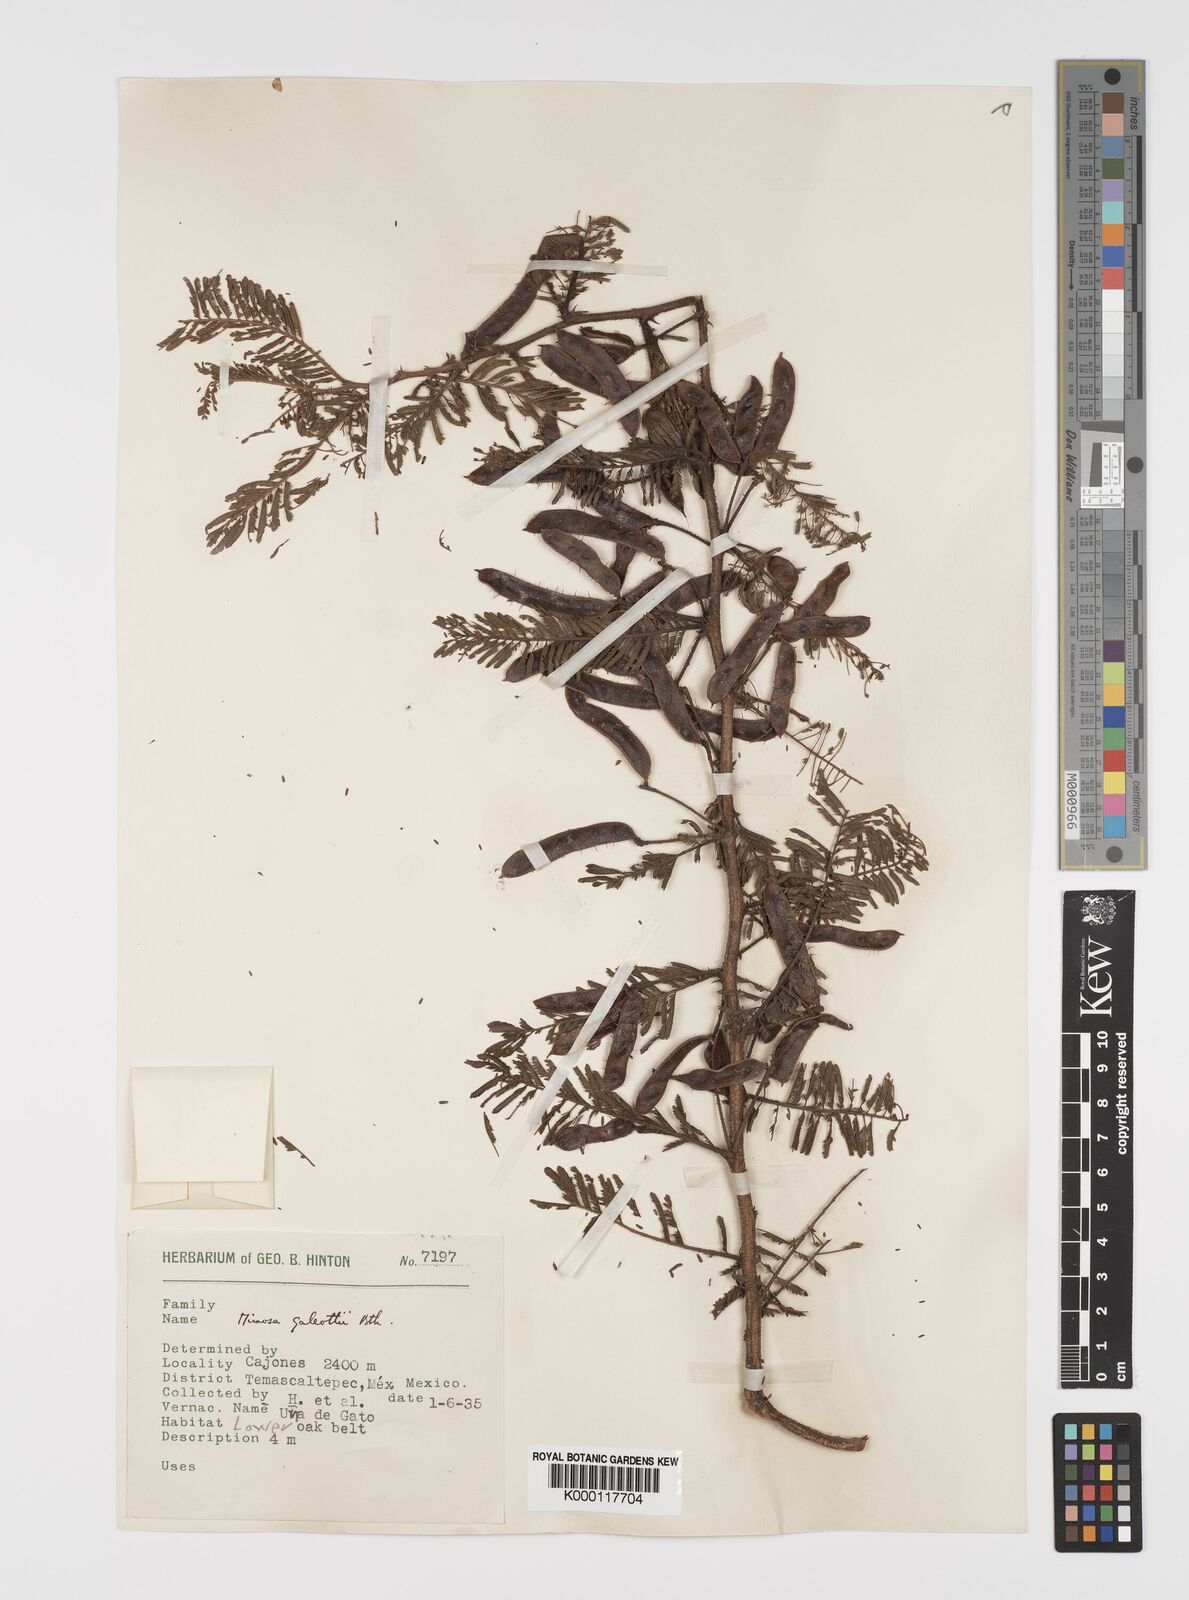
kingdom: Plantae
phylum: Tracheophyta
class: Magnoliopsida
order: Fabales
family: Fabaceae
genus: Mimosa
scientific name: Mimosa galeottii
